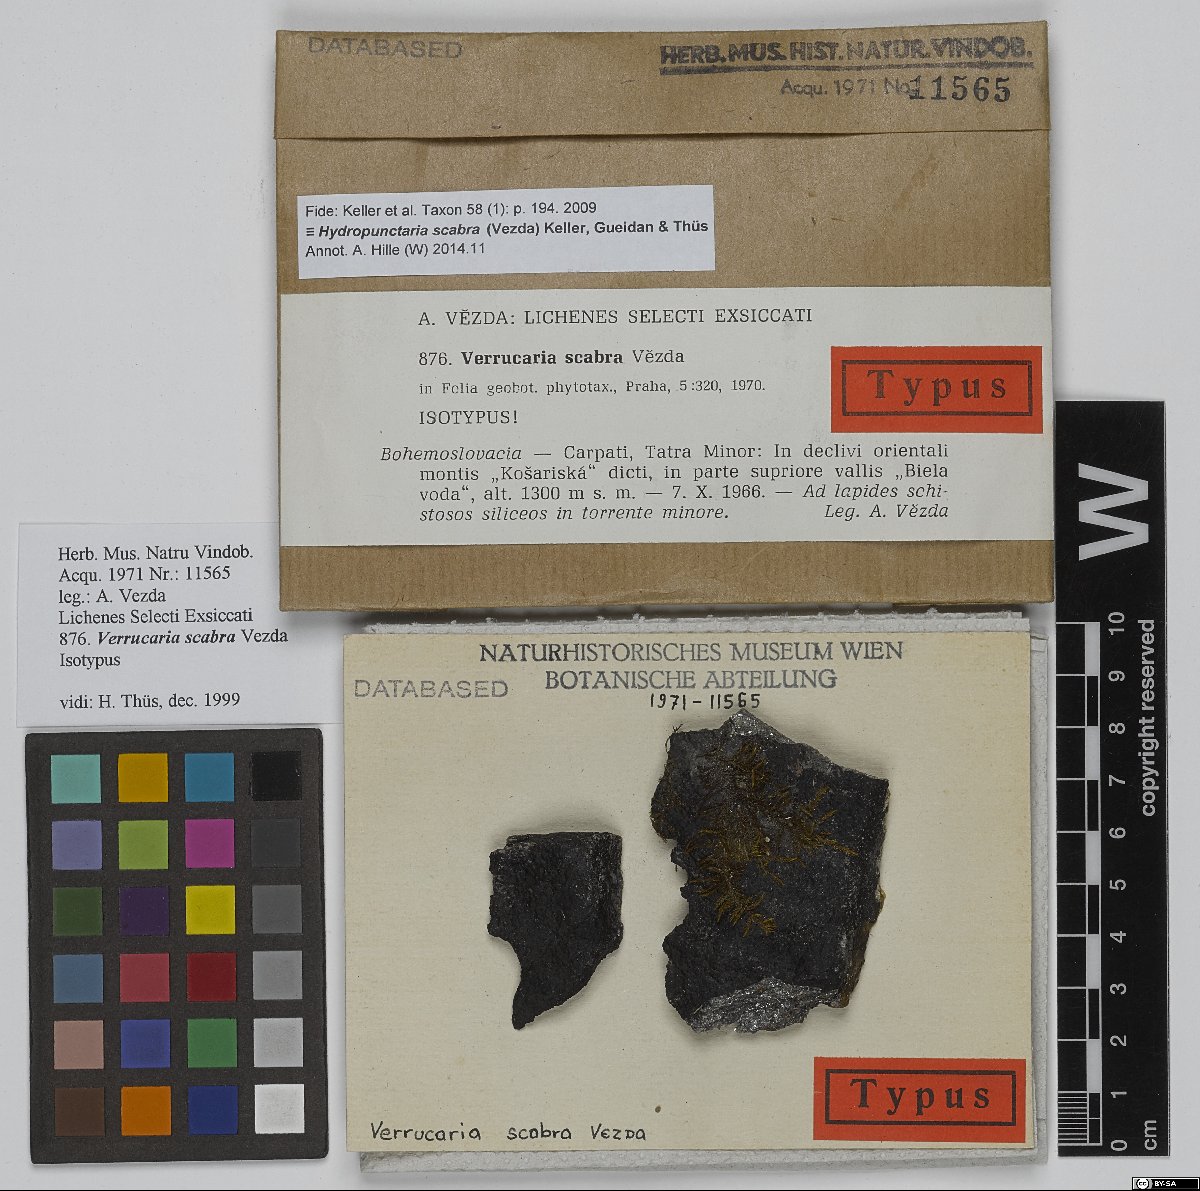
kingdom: Fungi
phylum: Ascomycota
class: Eurotiomycetes
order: Verrucariales
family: Verrucariaceae
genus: Hydropunctaria
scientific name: Hydropunctaria scabra
